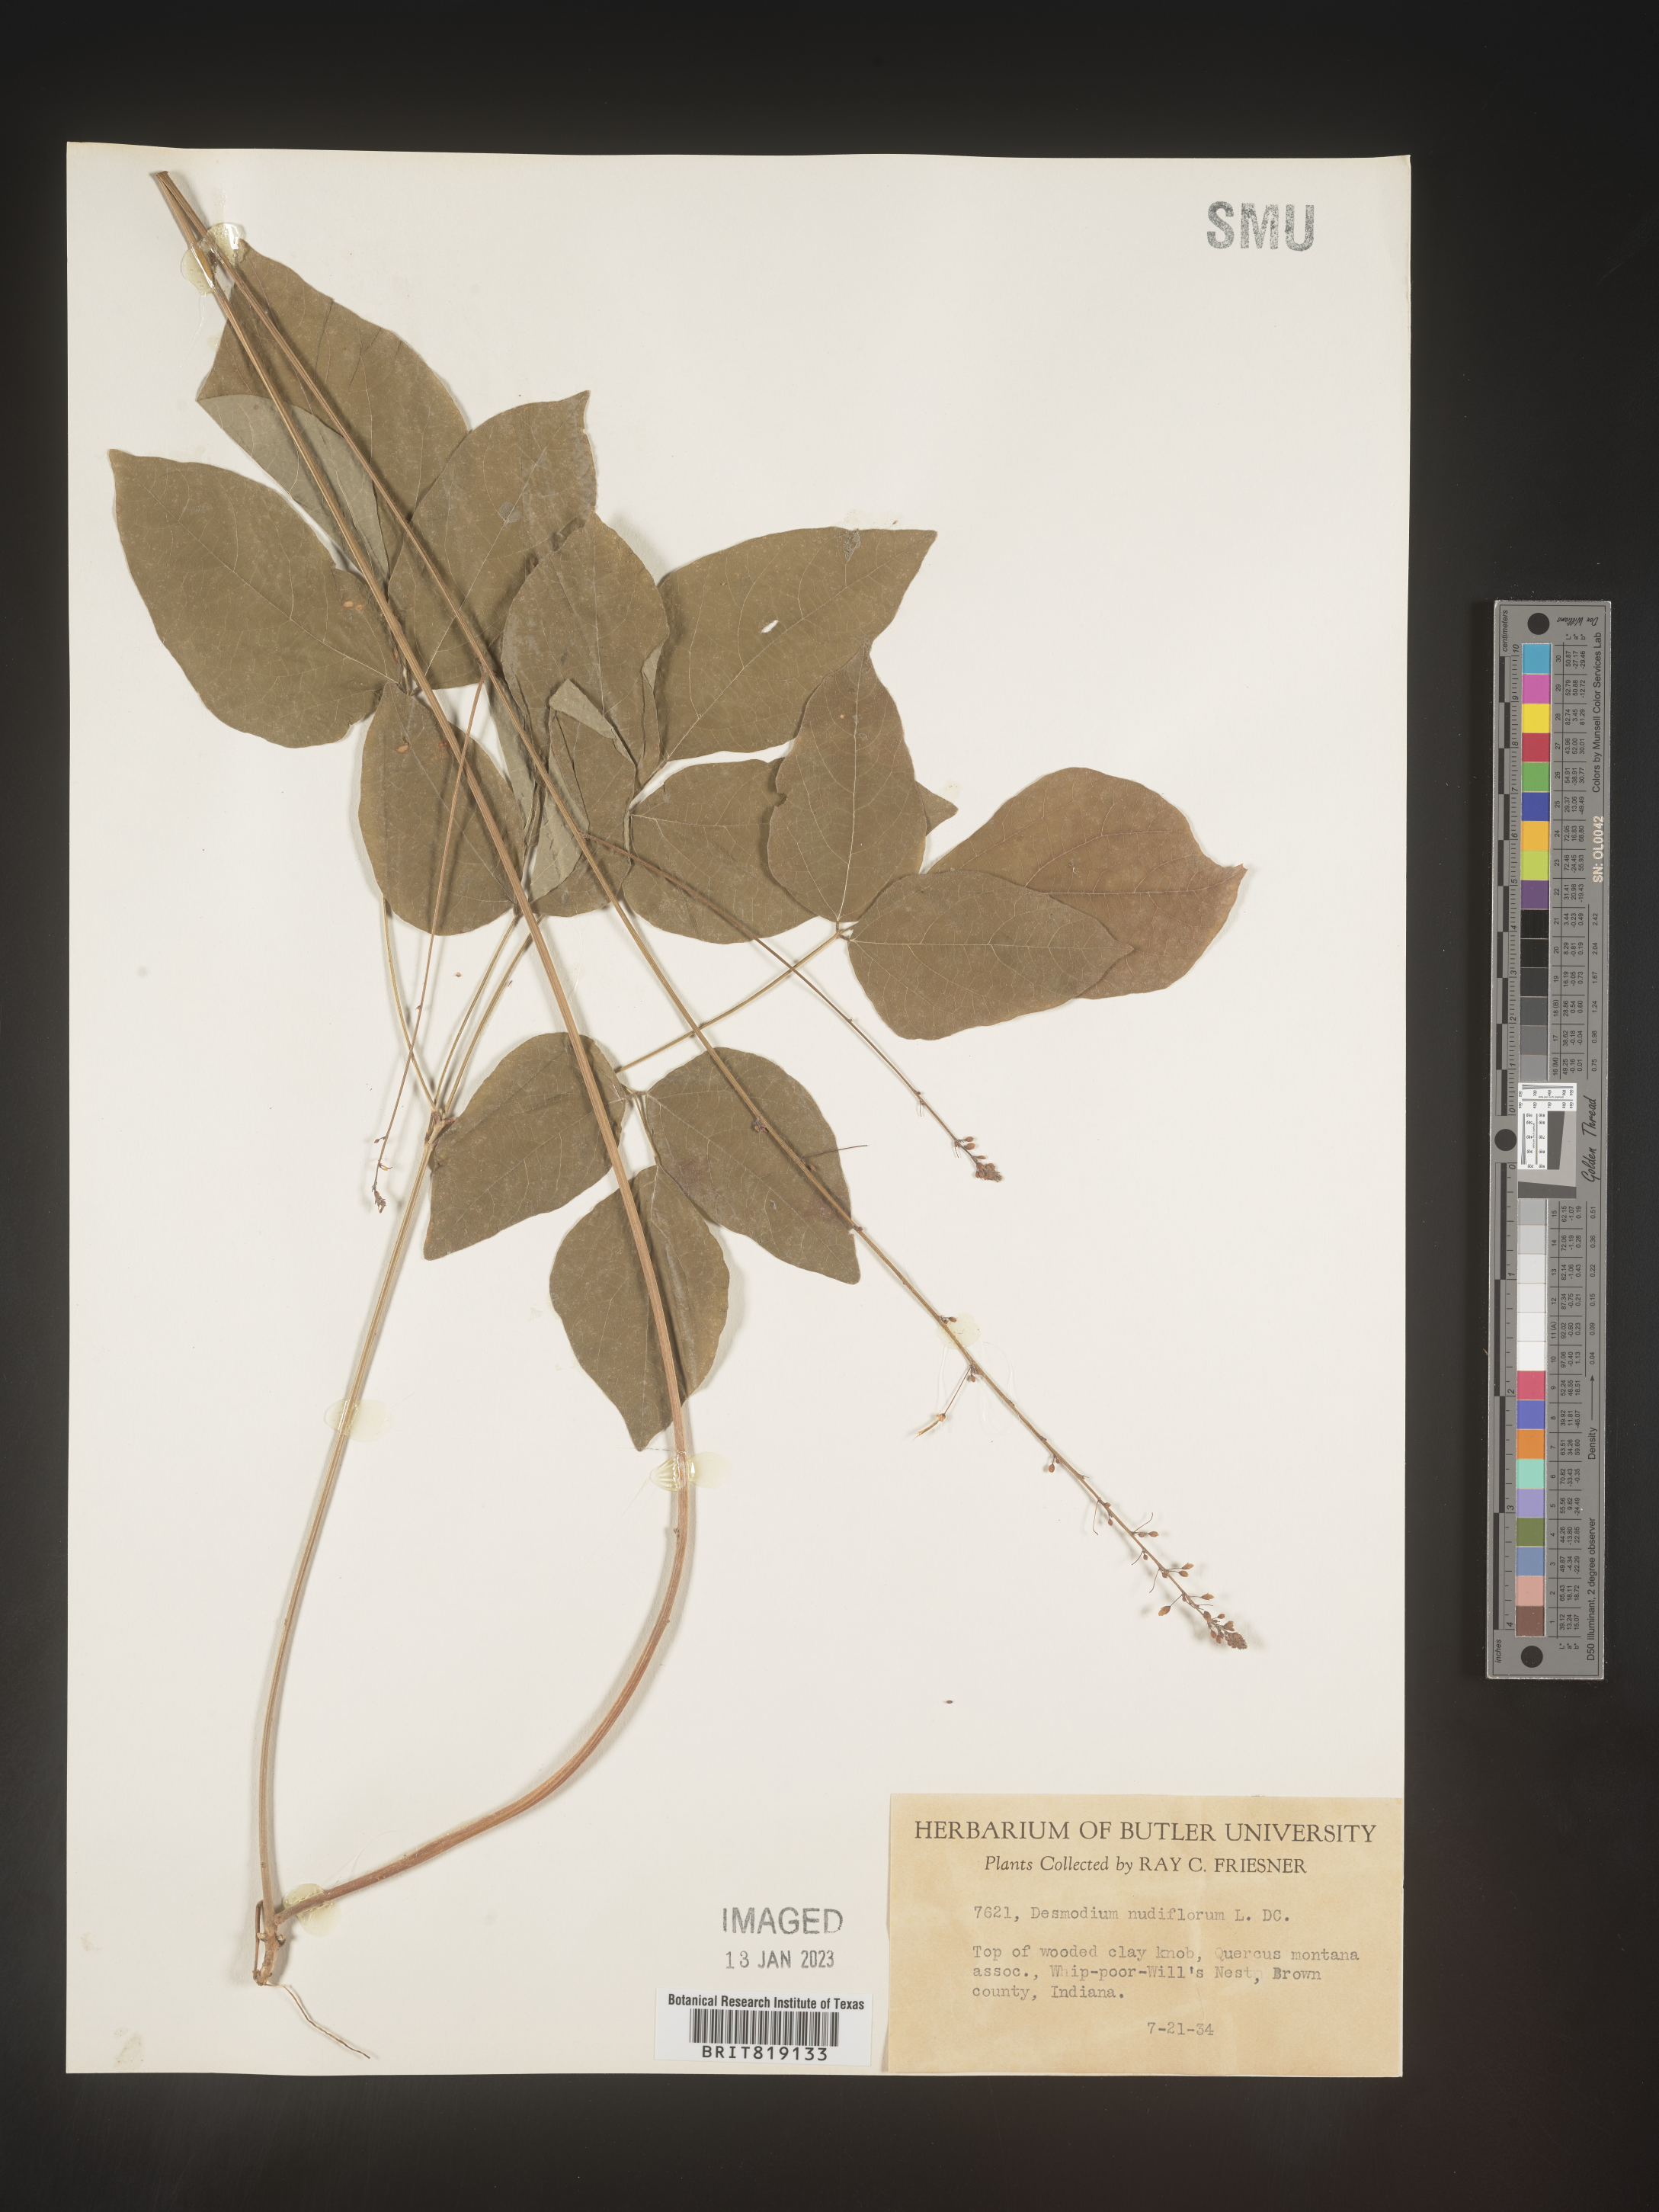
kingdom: Plantae
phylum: Tracheophyta
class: Magnoliopsida
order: Fabales
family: Fabaceae
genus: Hylodesmum
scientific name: Hylodesmum nudiflorum
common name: Bare-stemmed tick-trefoil
